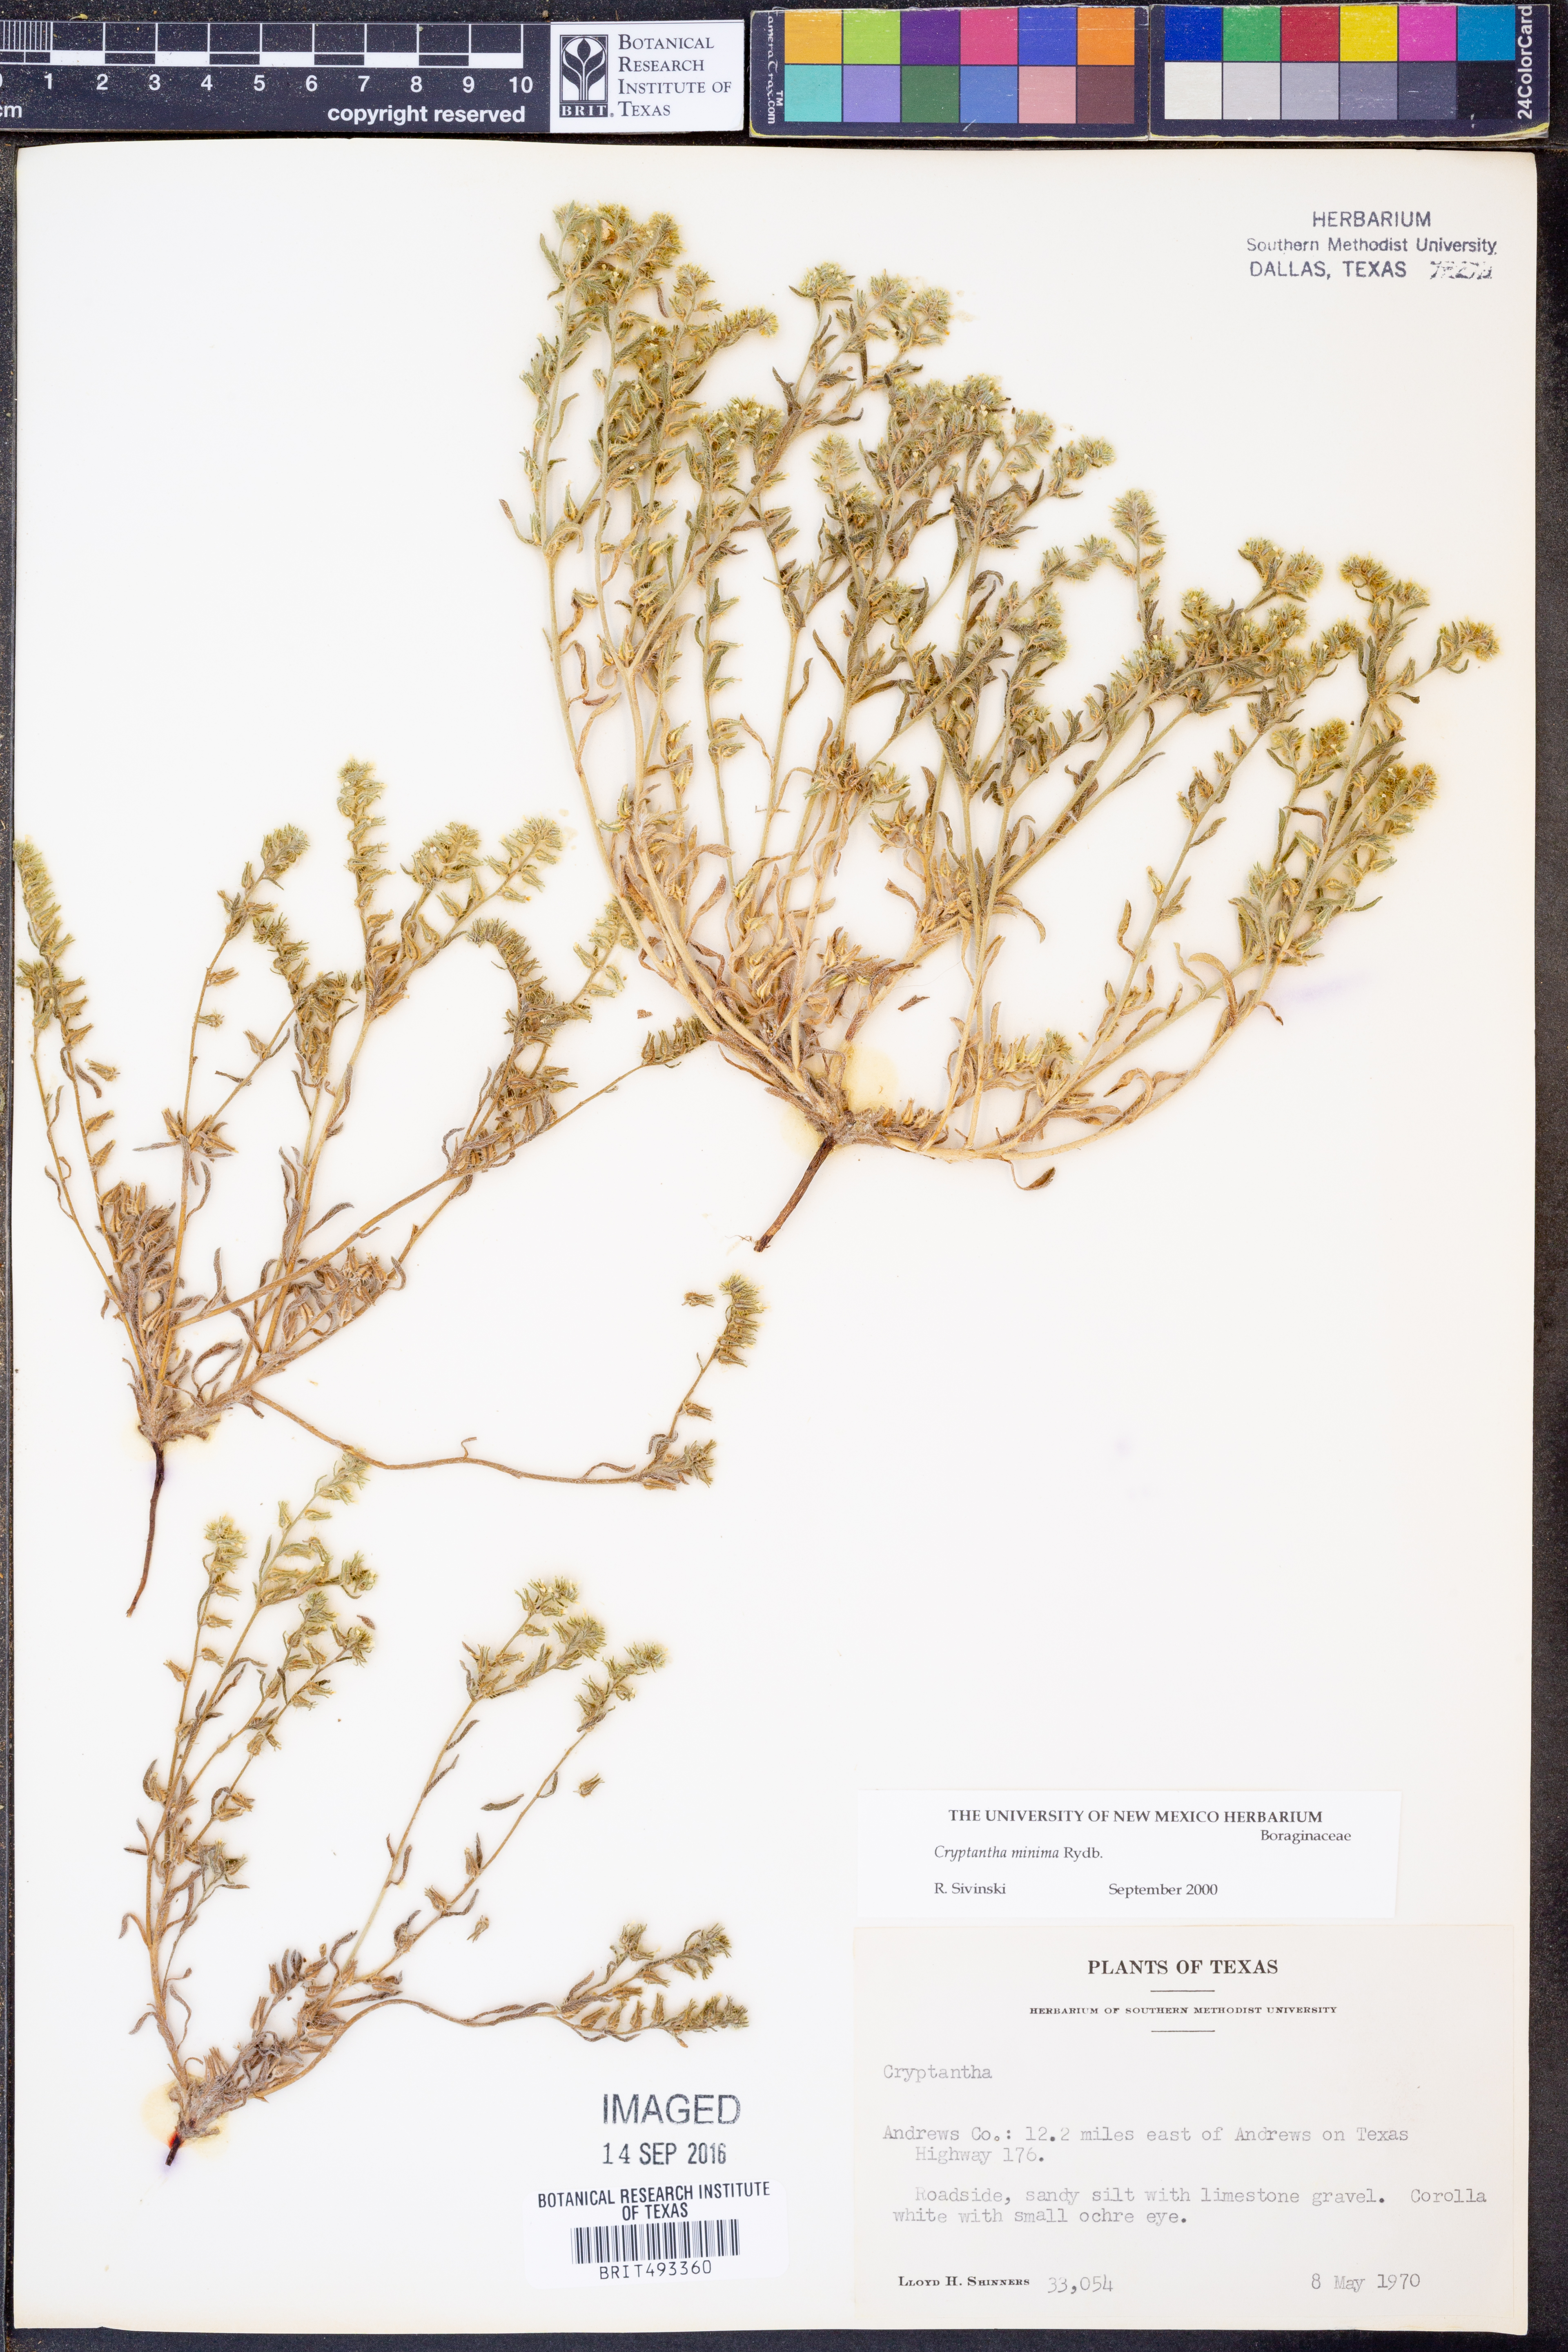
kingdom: Plantae
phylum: Tracheophyta
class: Magnoliopsida
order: Boraginales
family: Boraginaceae
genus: Cryptantha
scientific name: Cryptantha minima
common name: Little cat's-eye
